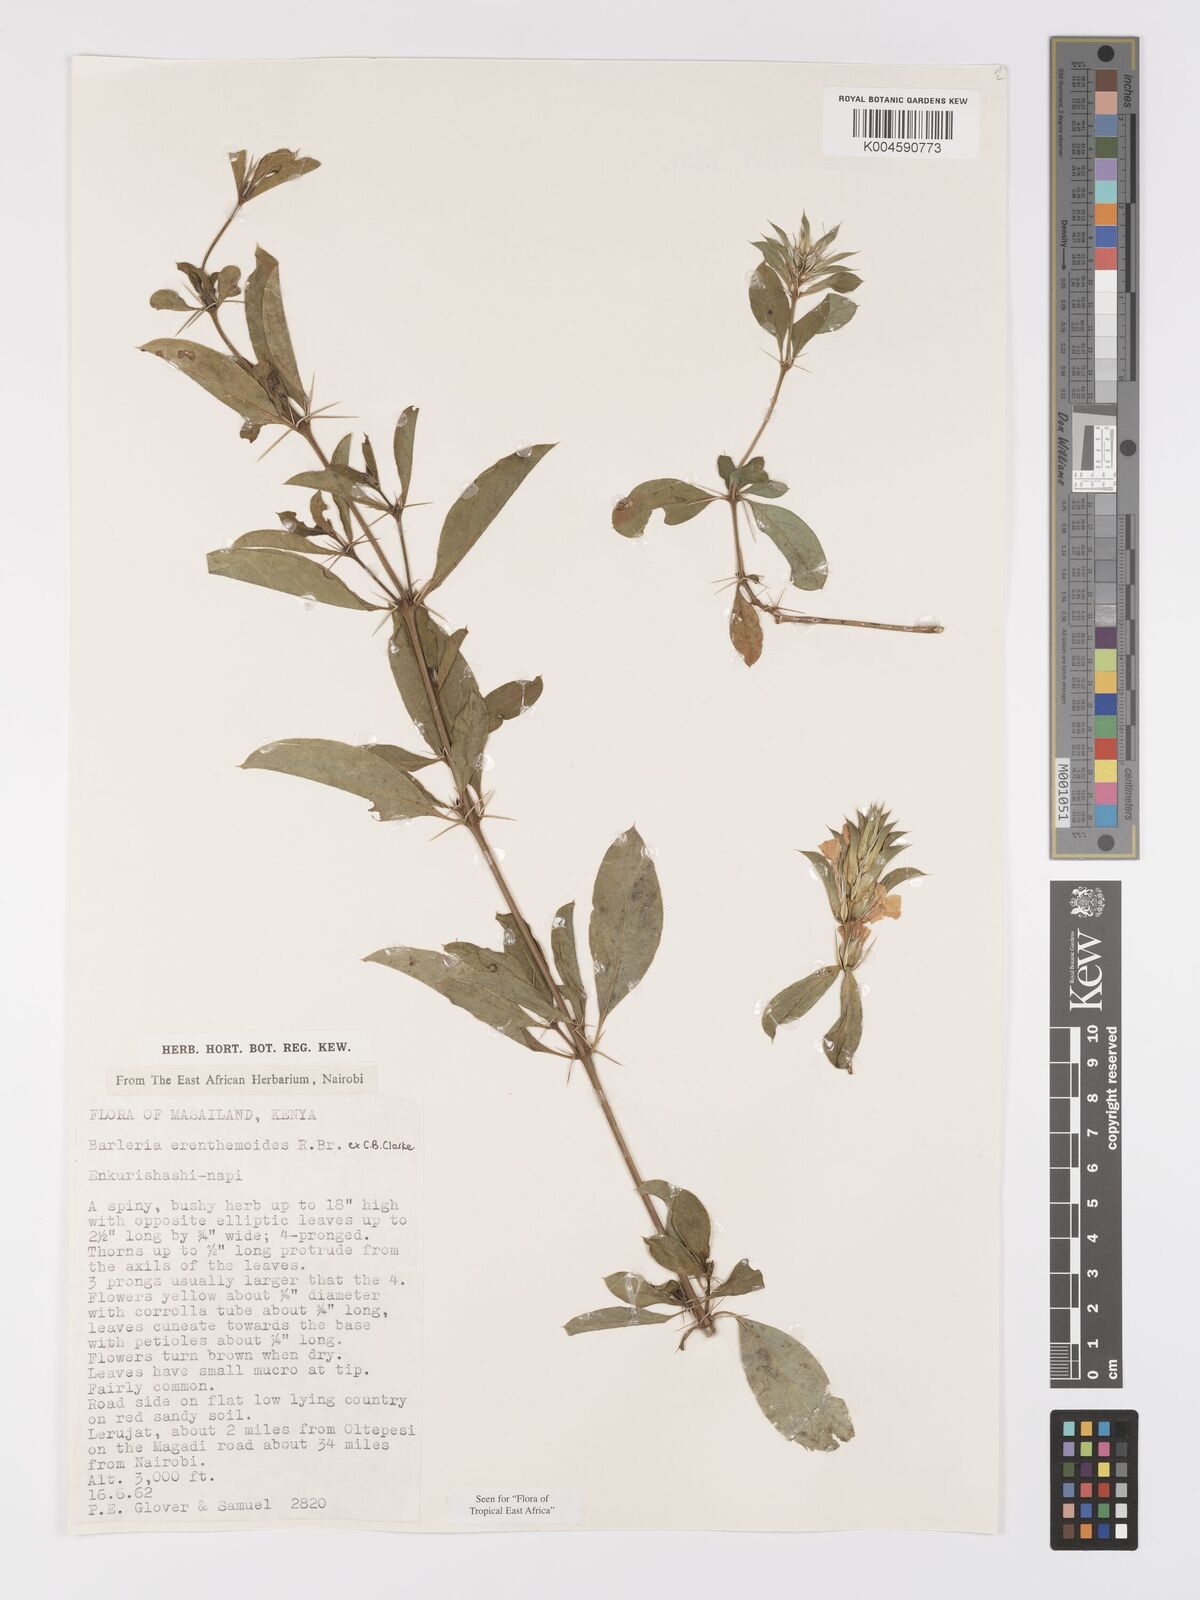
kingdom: Plantae
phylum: Tracheophyta
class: Magnoliopsida
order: Lamiales
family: Acanthaceae
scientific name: Acanthaceae
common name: Acanthaceae
